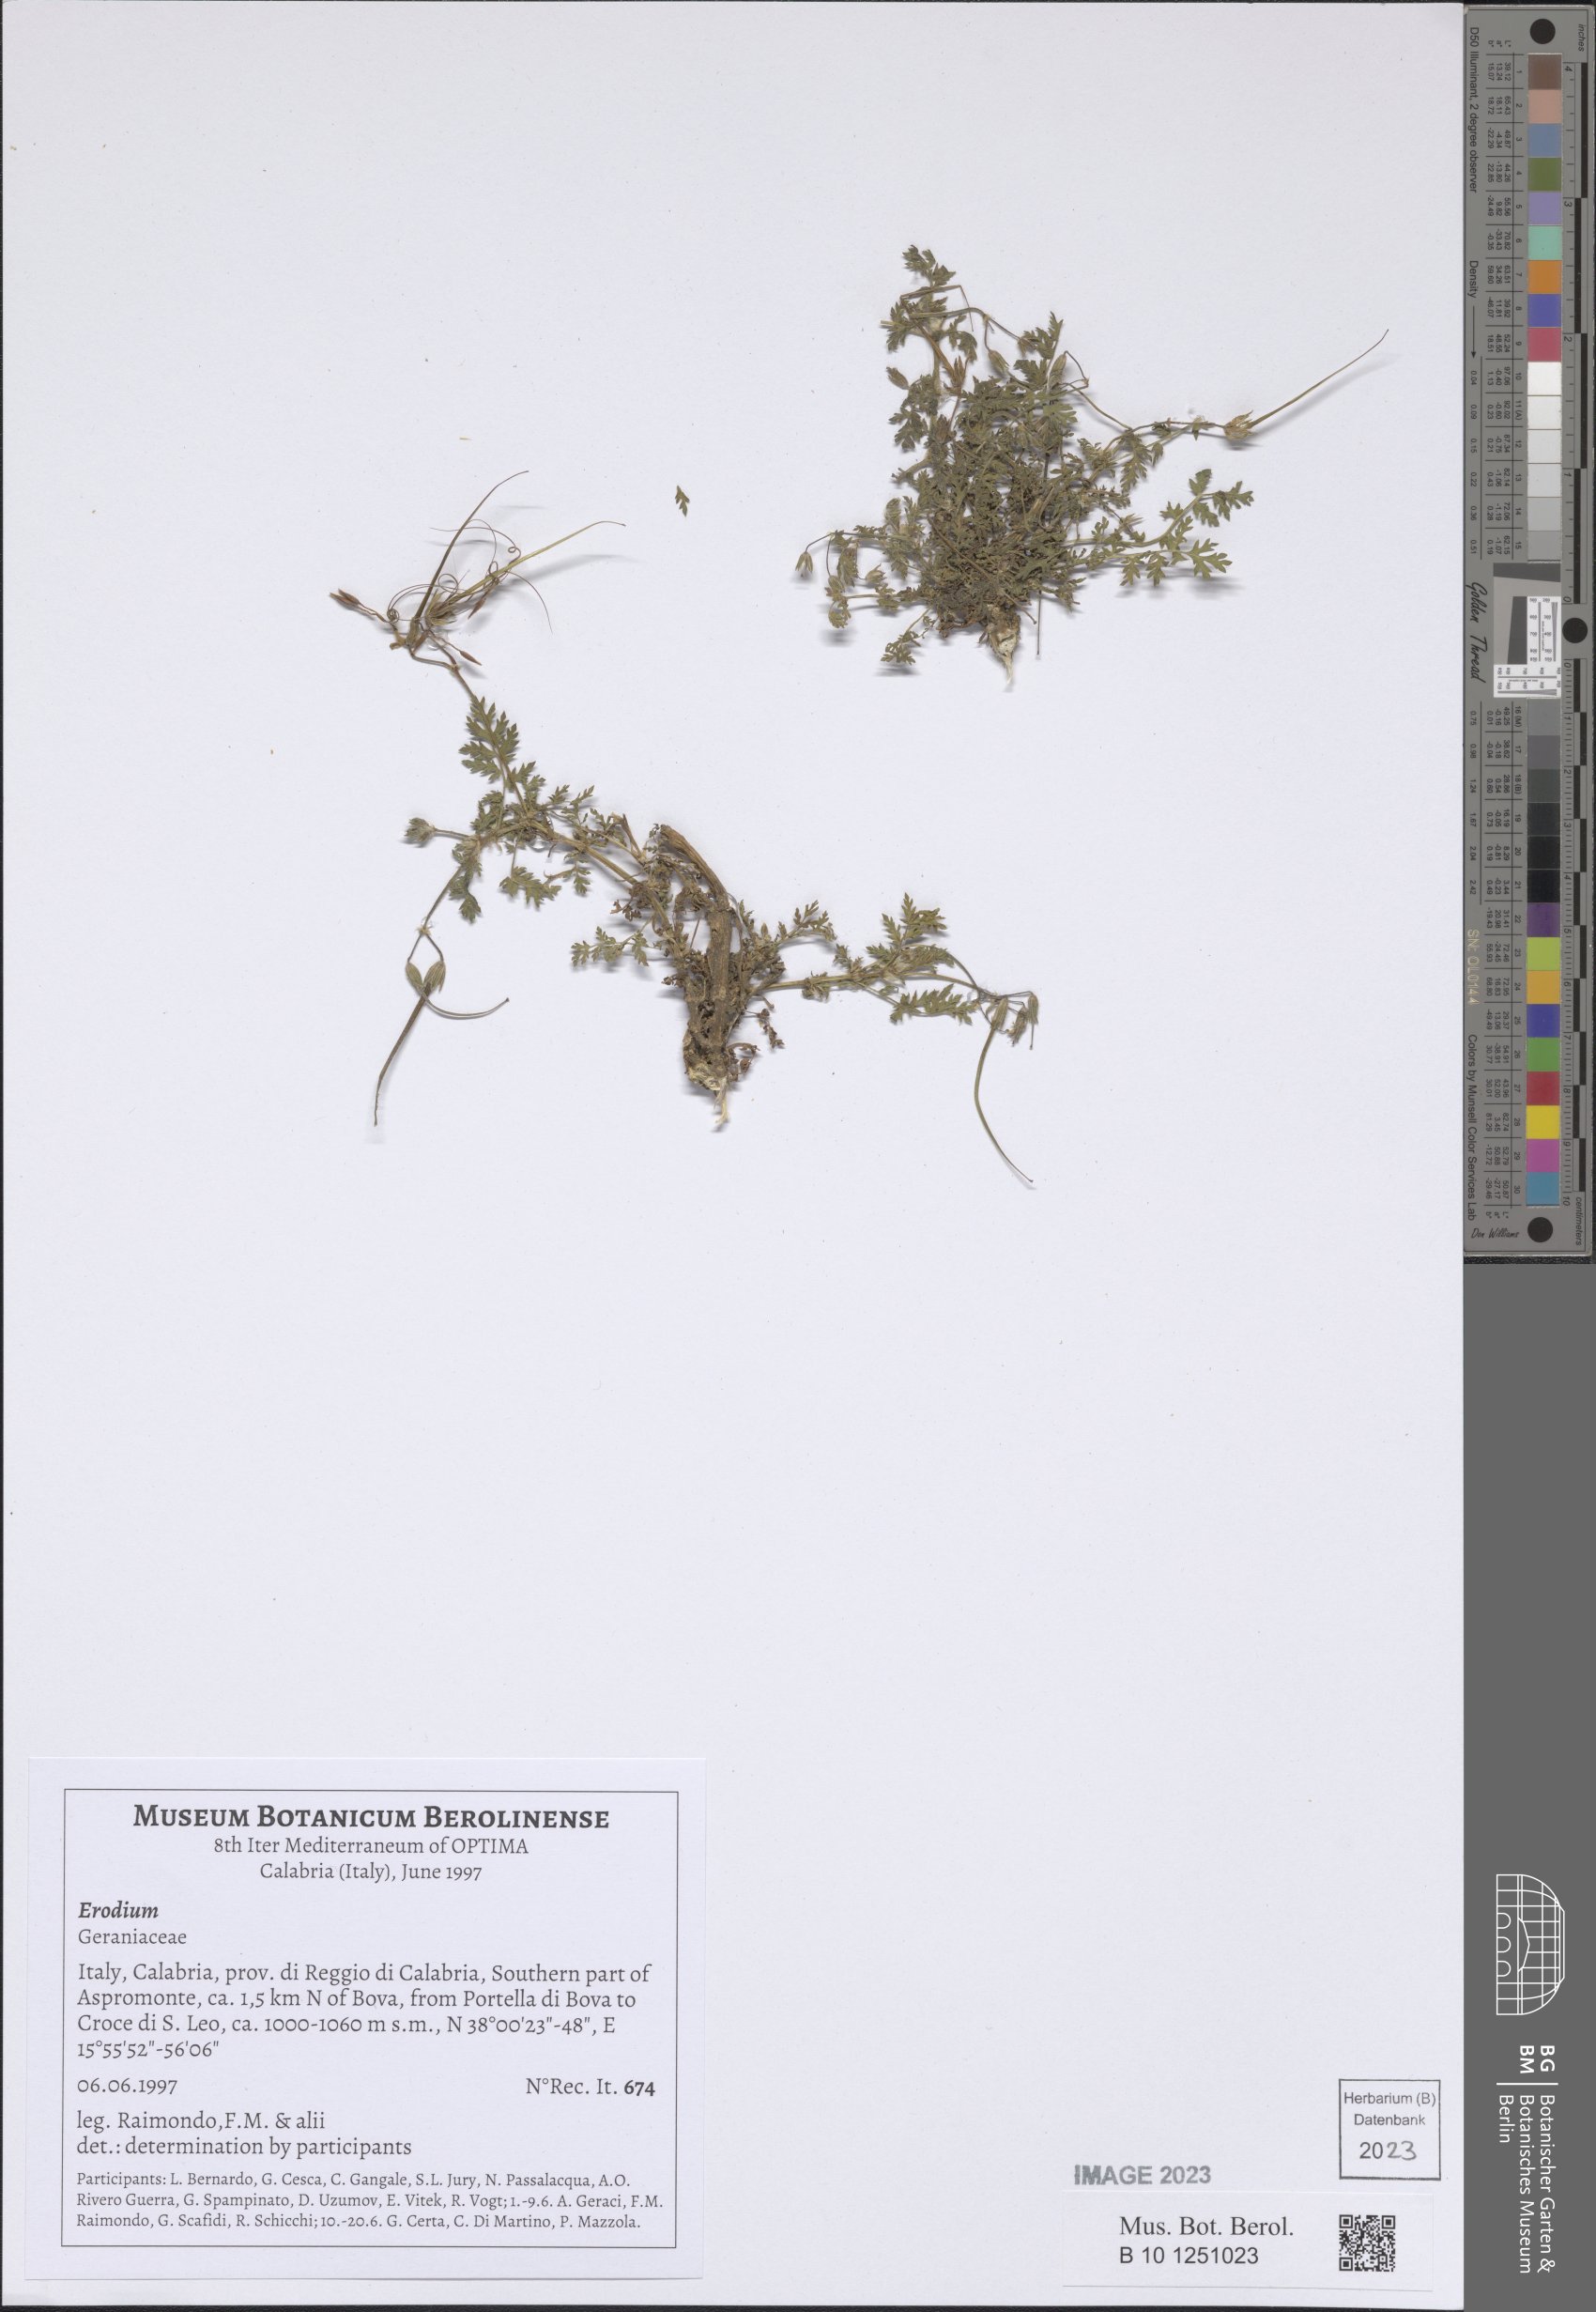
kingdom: Plantae
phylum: Tracheophyta
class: Magnoliopsida
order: Geraniales
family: Geraniaceae
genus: Erodium
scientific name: Erodium
